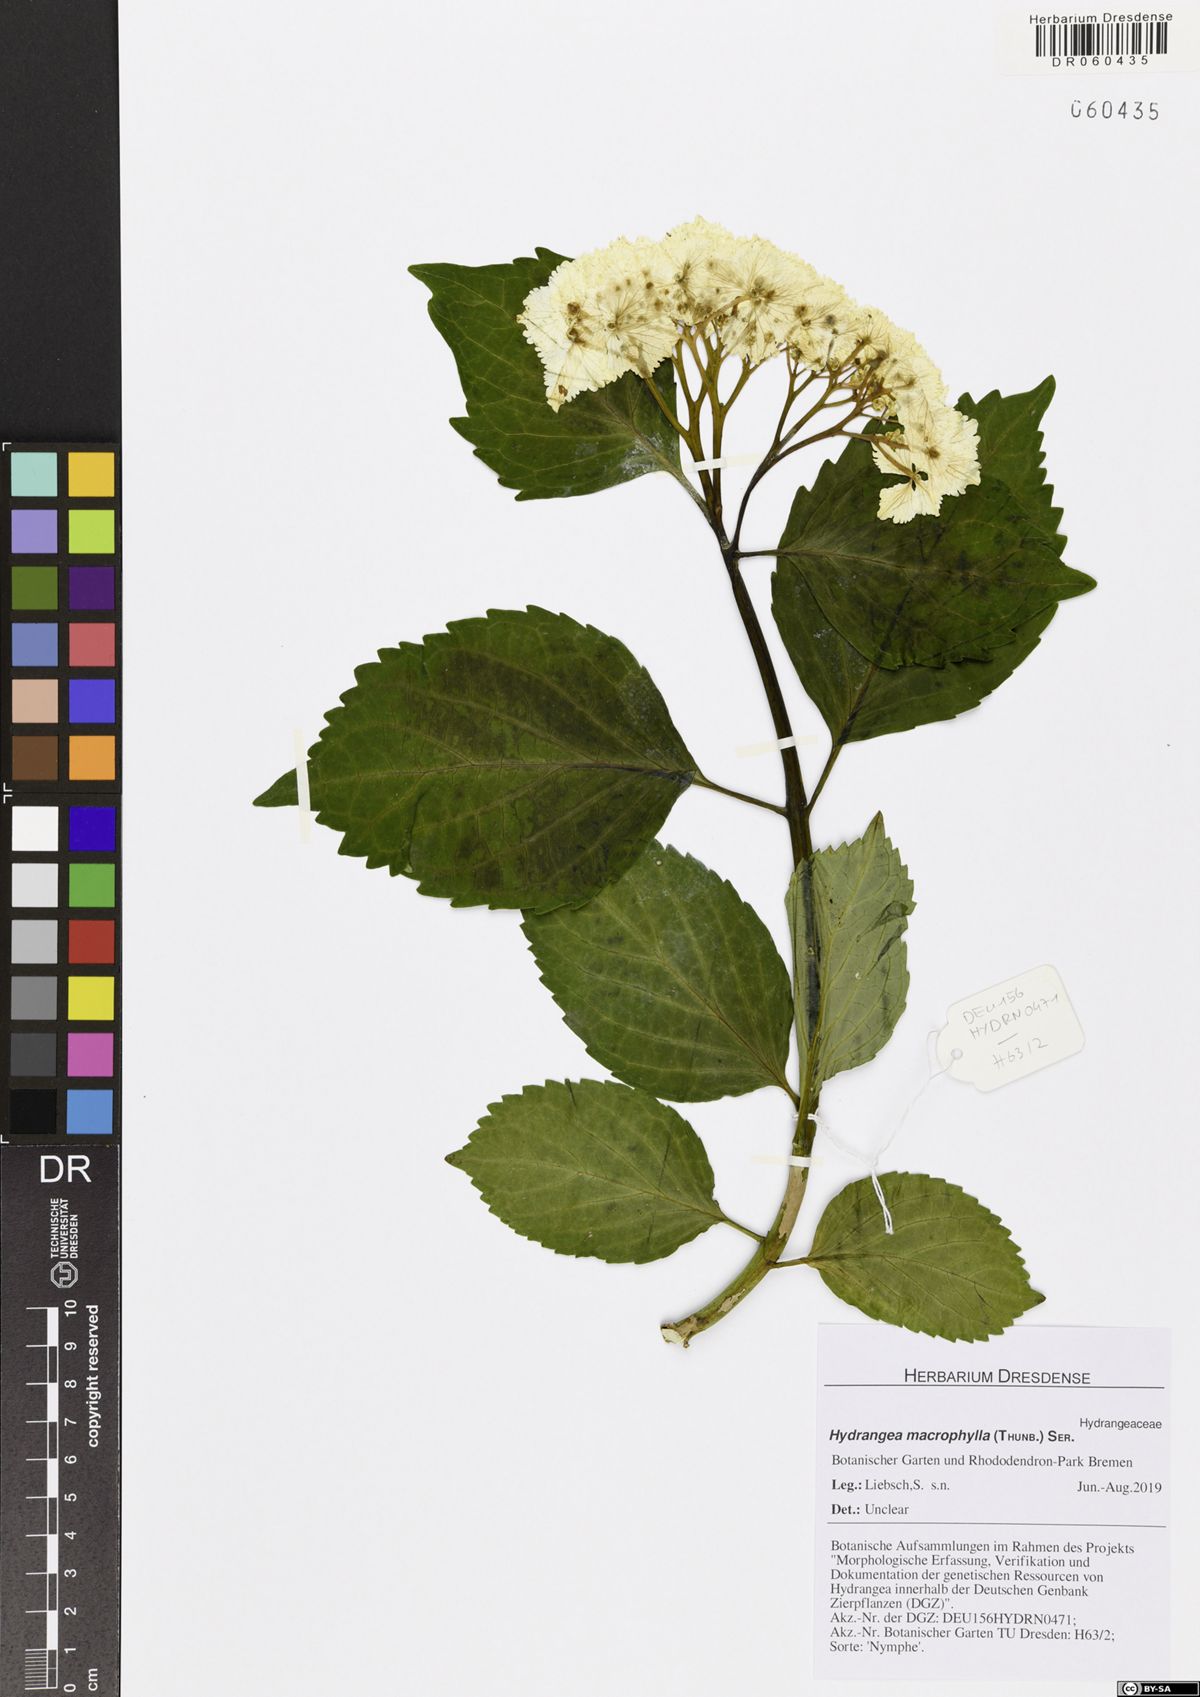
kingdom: Plantae
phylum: Tracheophyta
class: Magnoliopsida
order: Cornales
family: Hydrangeaceae
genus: Hydrangea
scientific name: Hydrangea macrophylla
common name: Hydrangea
